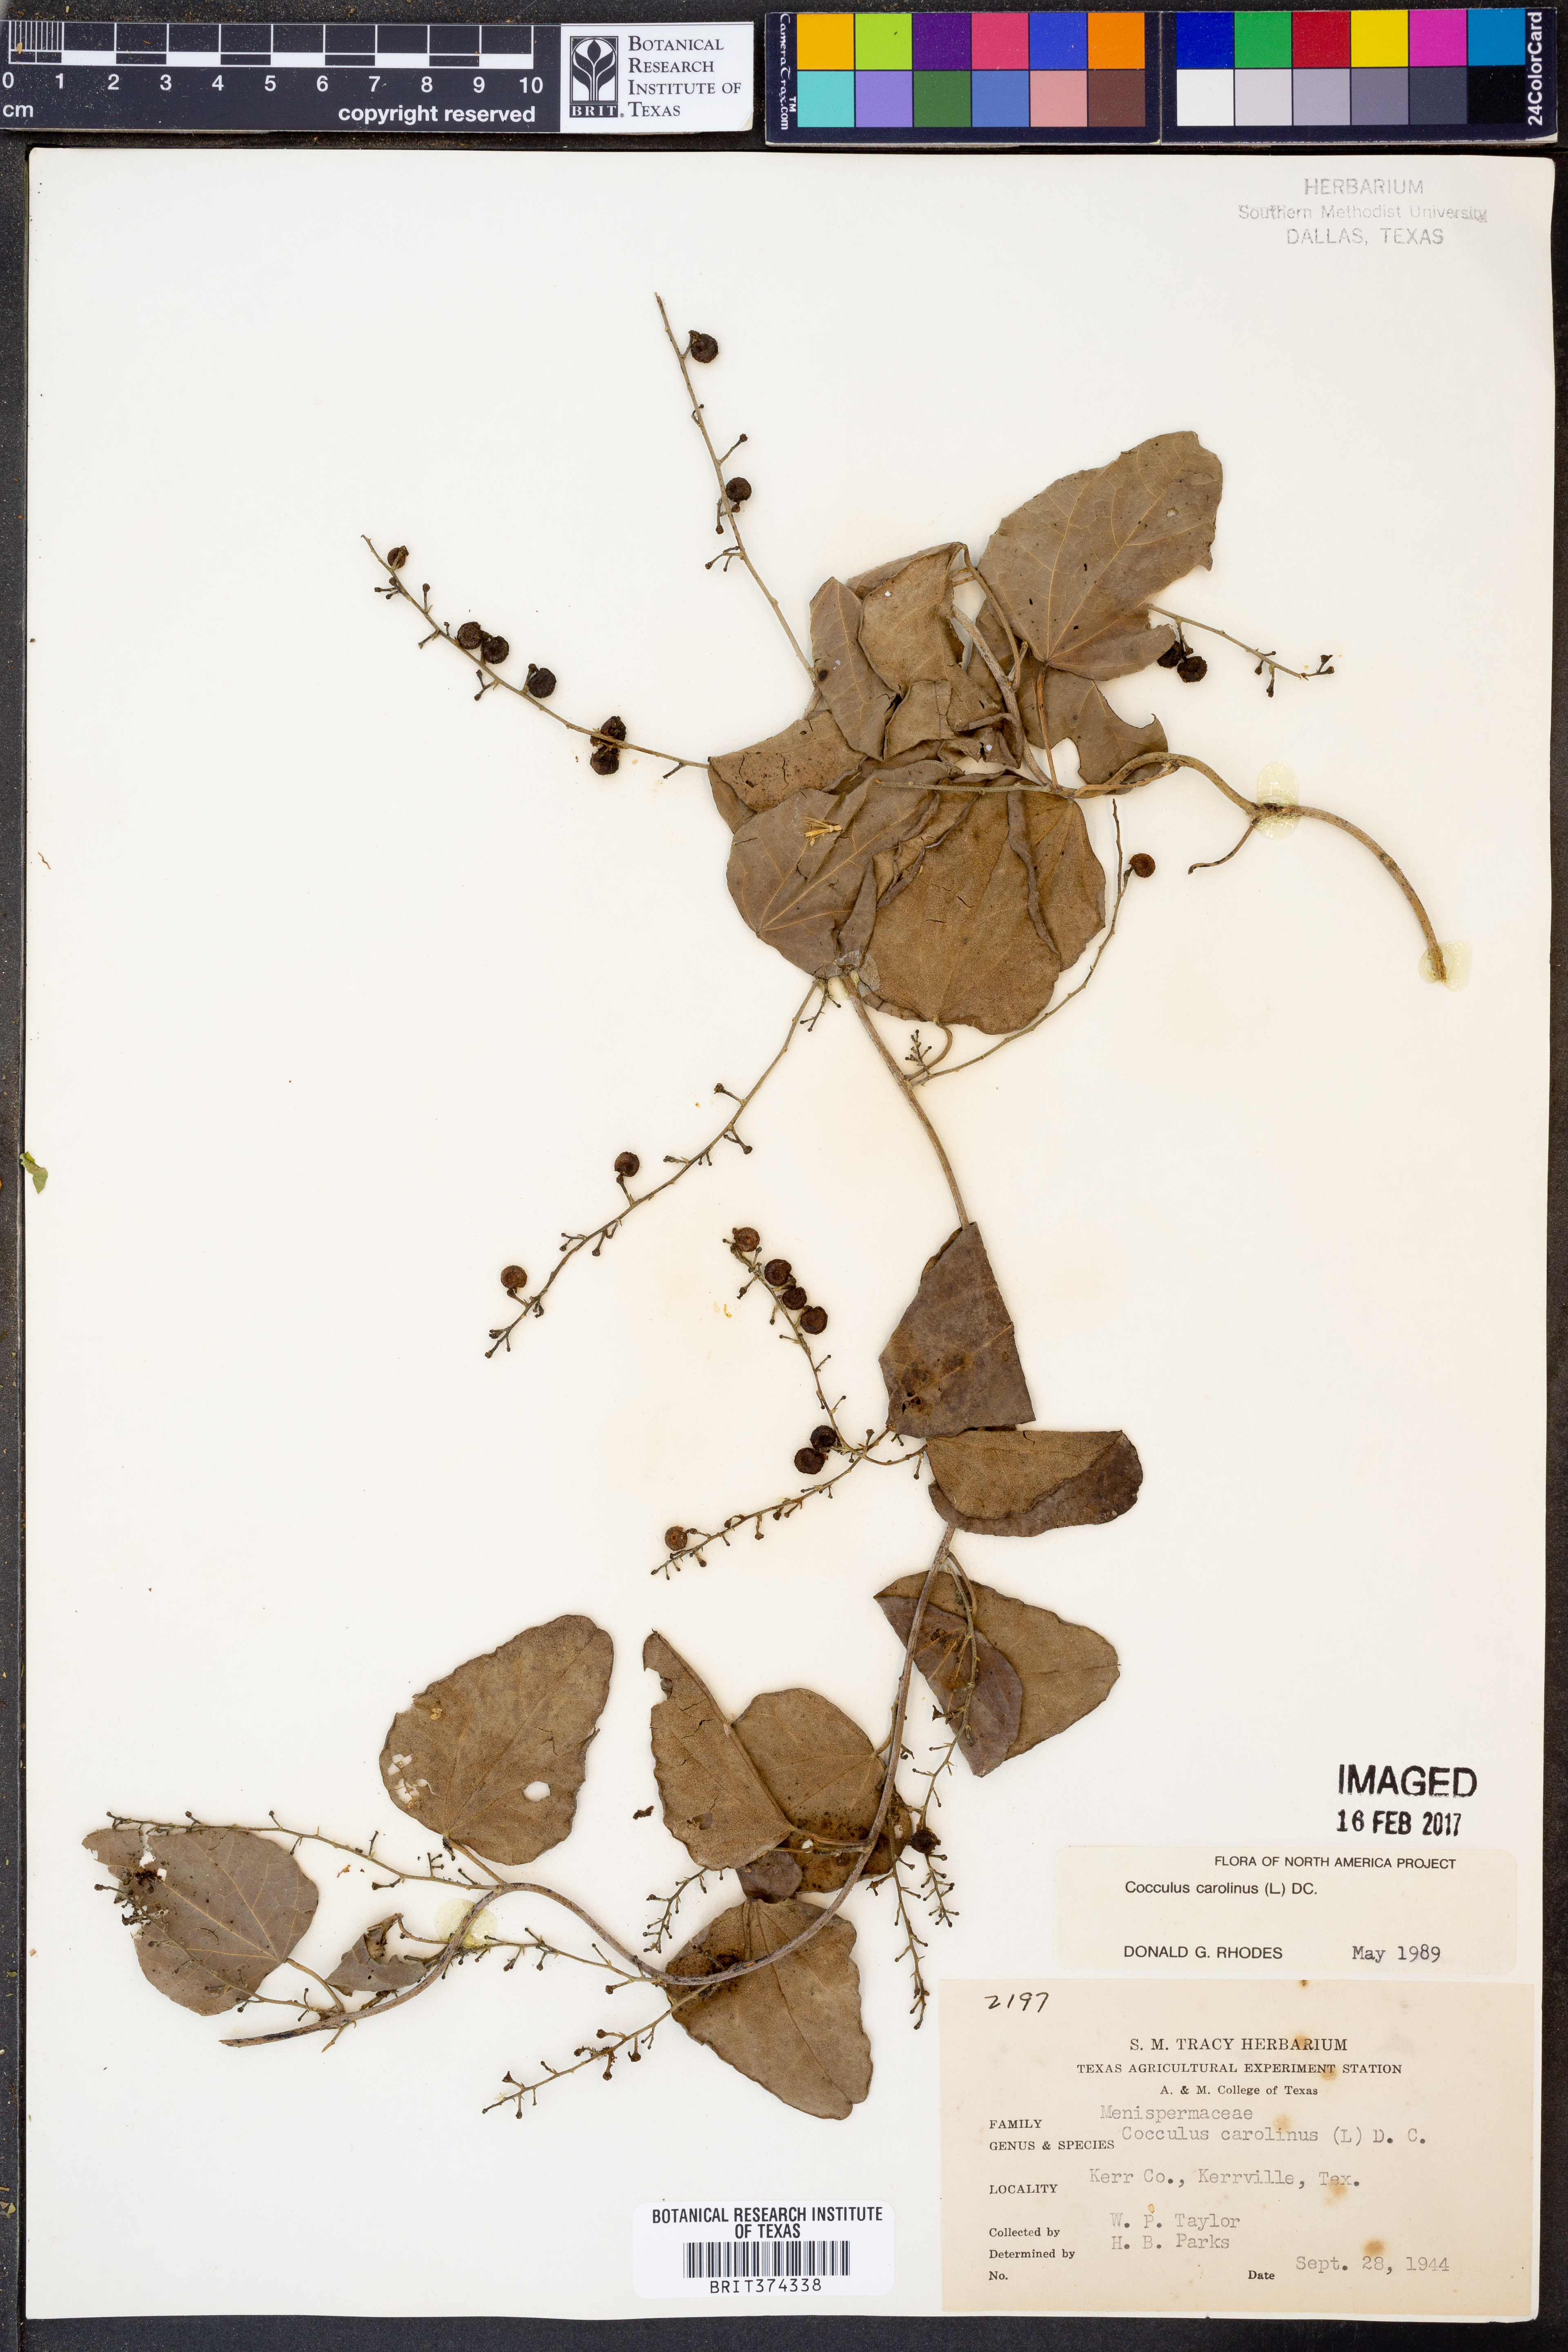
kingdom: Plantae
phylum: Tracheophyta
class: Magnoliopsida
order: Ranunculales
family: Menispermaceae
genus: Cocculus
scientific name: Cocculus carolinus
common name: Carolina moonseed
